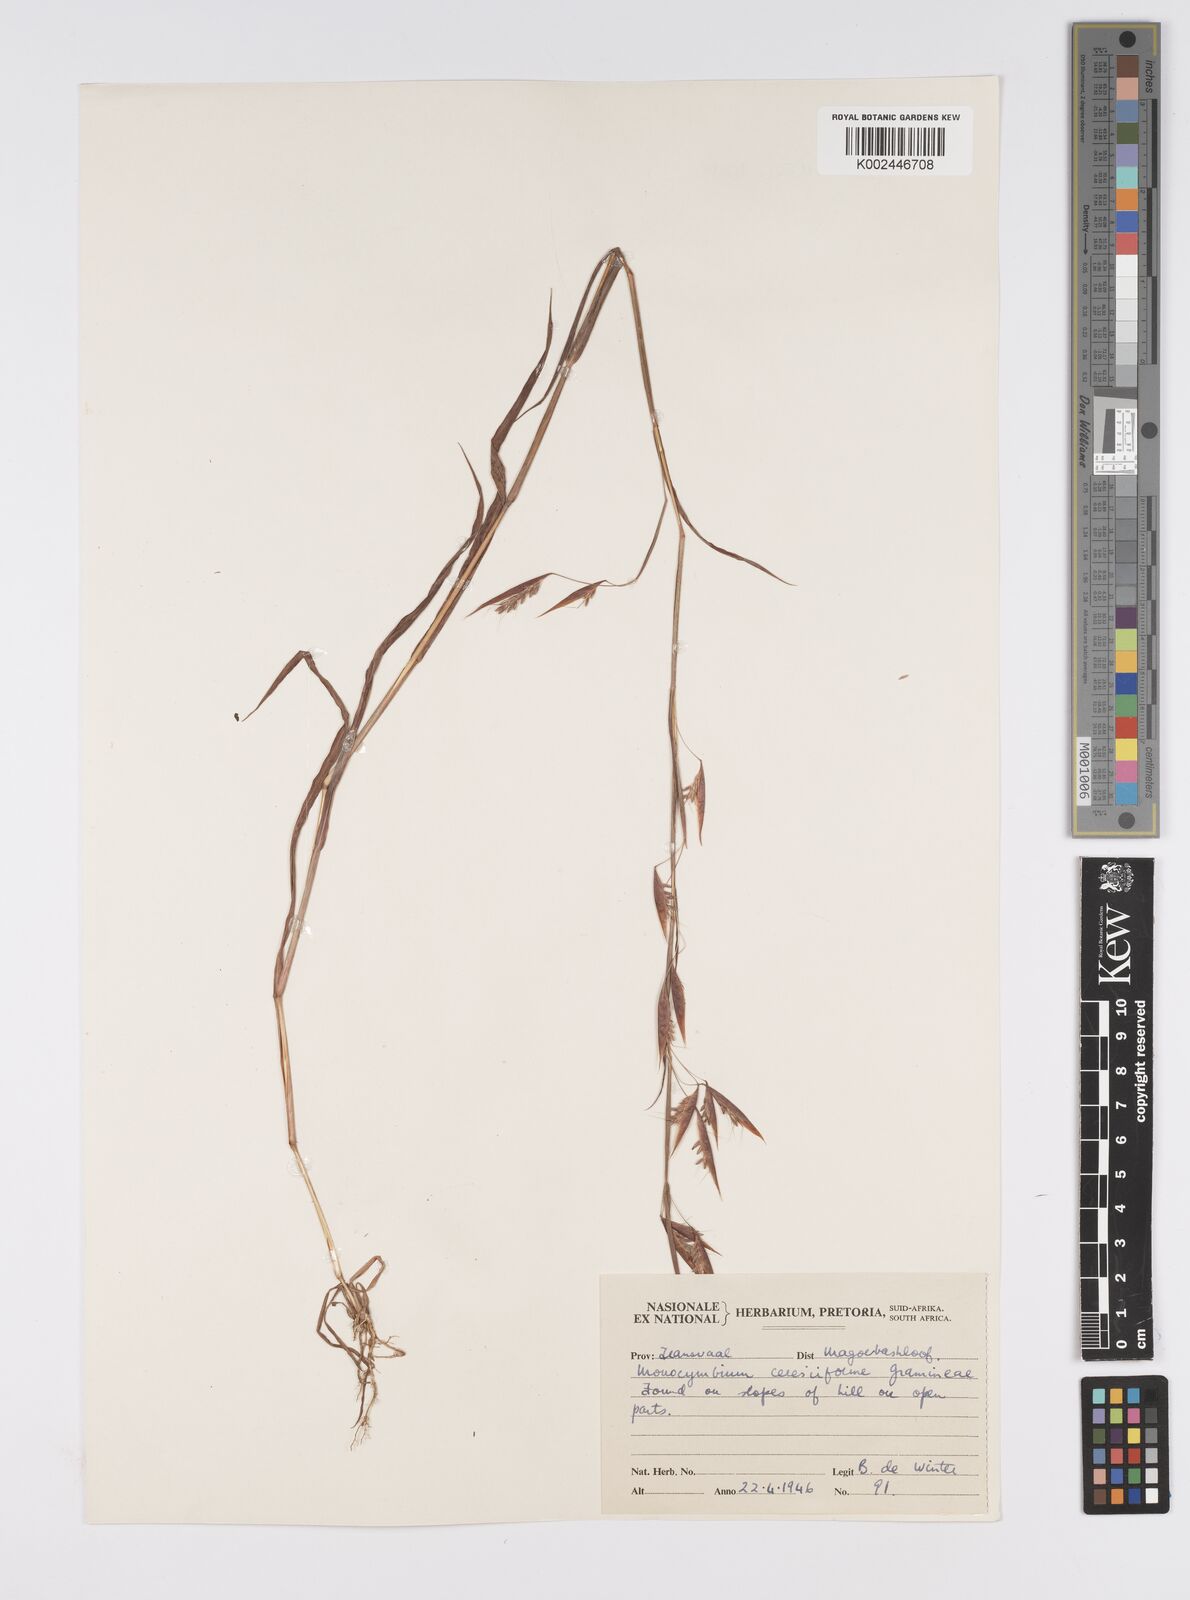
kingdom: Plantae
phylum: Tracheophyta
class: Liliopsida
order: Poales
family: Poaceae
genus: Monocymbium
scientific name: Monocymbium ceresiiforme
